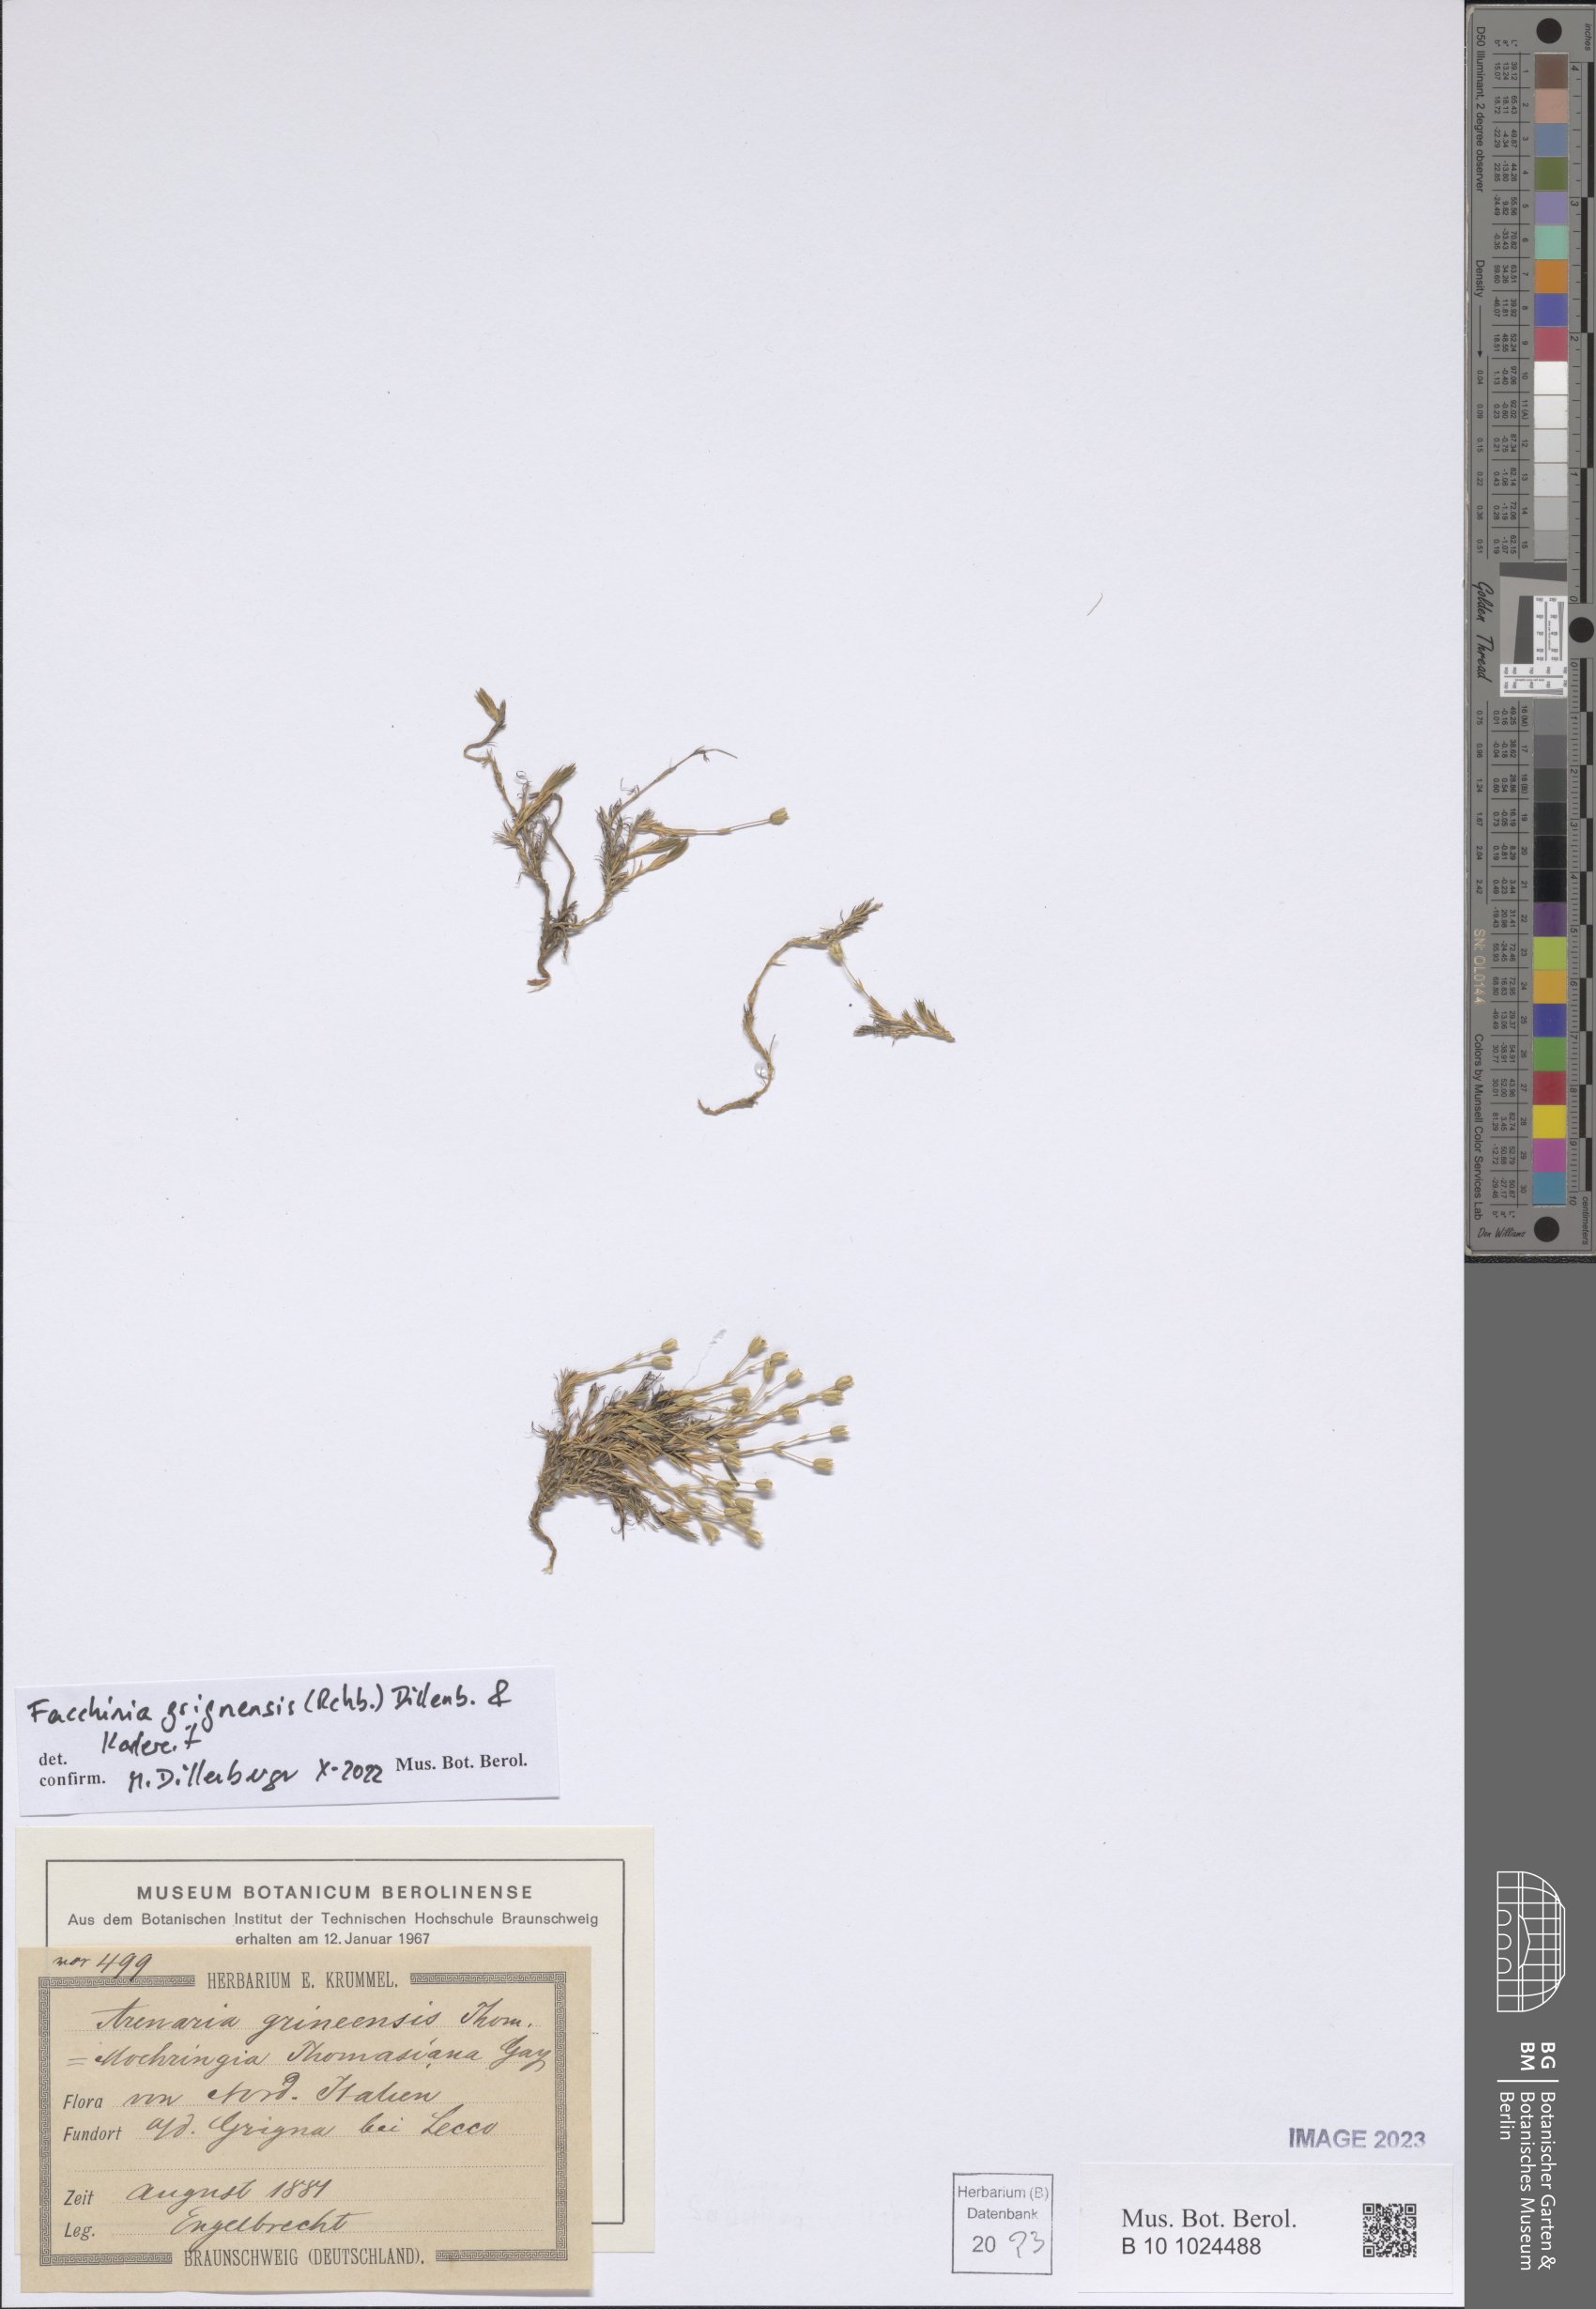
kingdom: Plantae
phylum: Tracheophyta
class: Magnoliopsida
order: Caryophyllales
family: Caryophyllaceae
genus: Facchinia
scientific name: Facchinia grignensis
